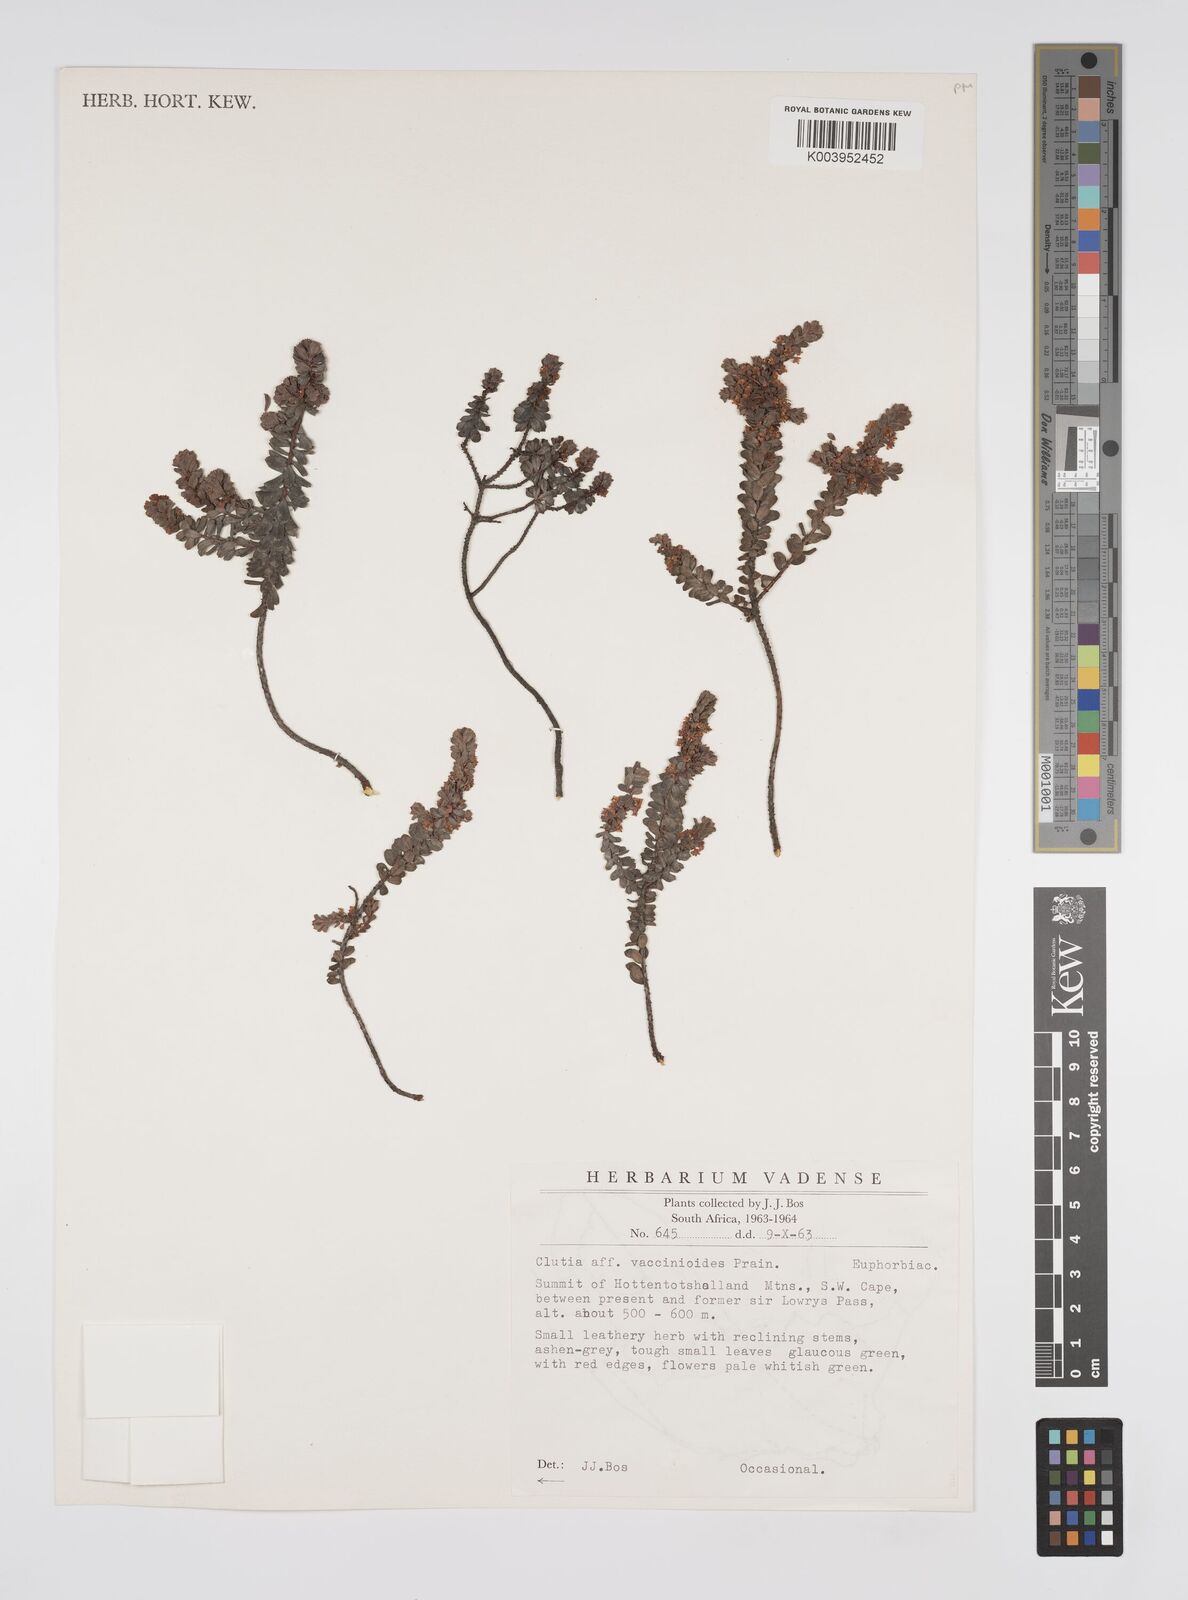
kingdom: Plantae
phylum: Tracheophyta
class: Magnoliopsida
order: Malpighiales
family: Peraceae
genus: Clutia
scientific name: Clutia heterophylla
